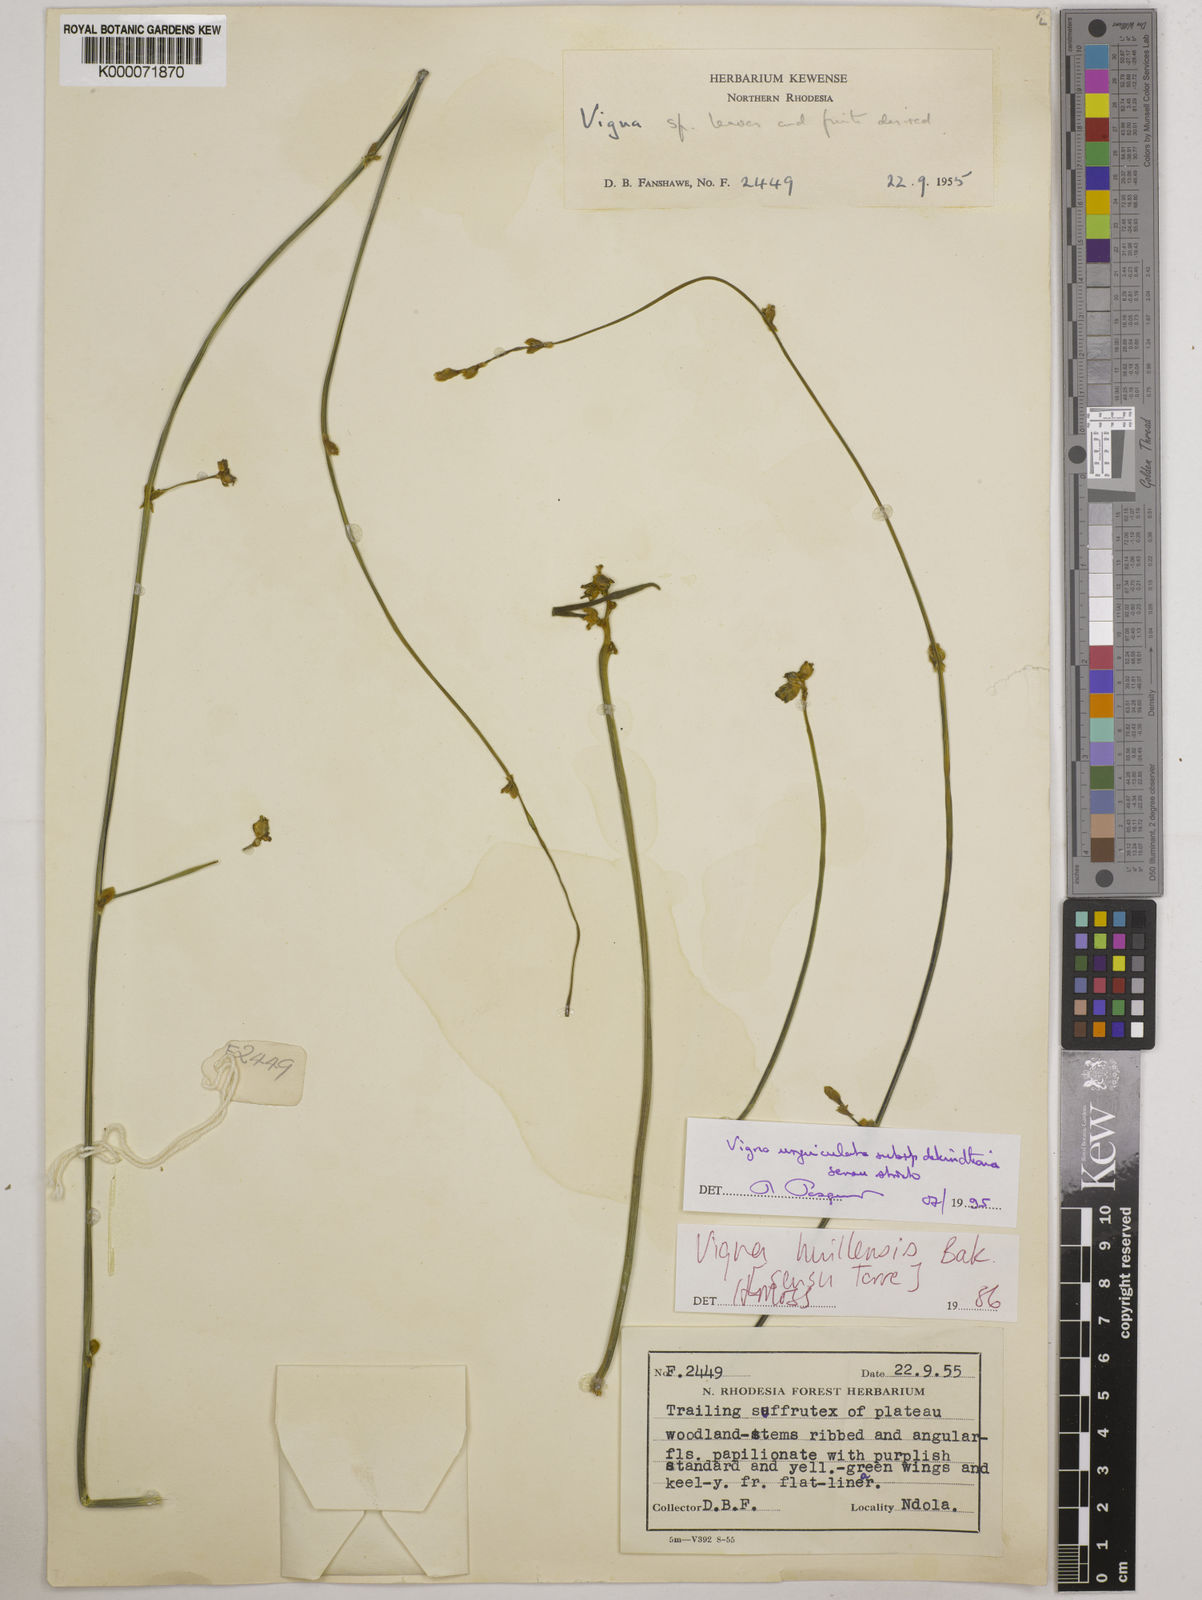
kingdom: Plantae
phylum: Tracheophyta
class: Magnoliopsida
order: Fabales
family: Fabaceae
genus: Vigna
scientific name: Vigna unguiculata
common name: Cowpea
